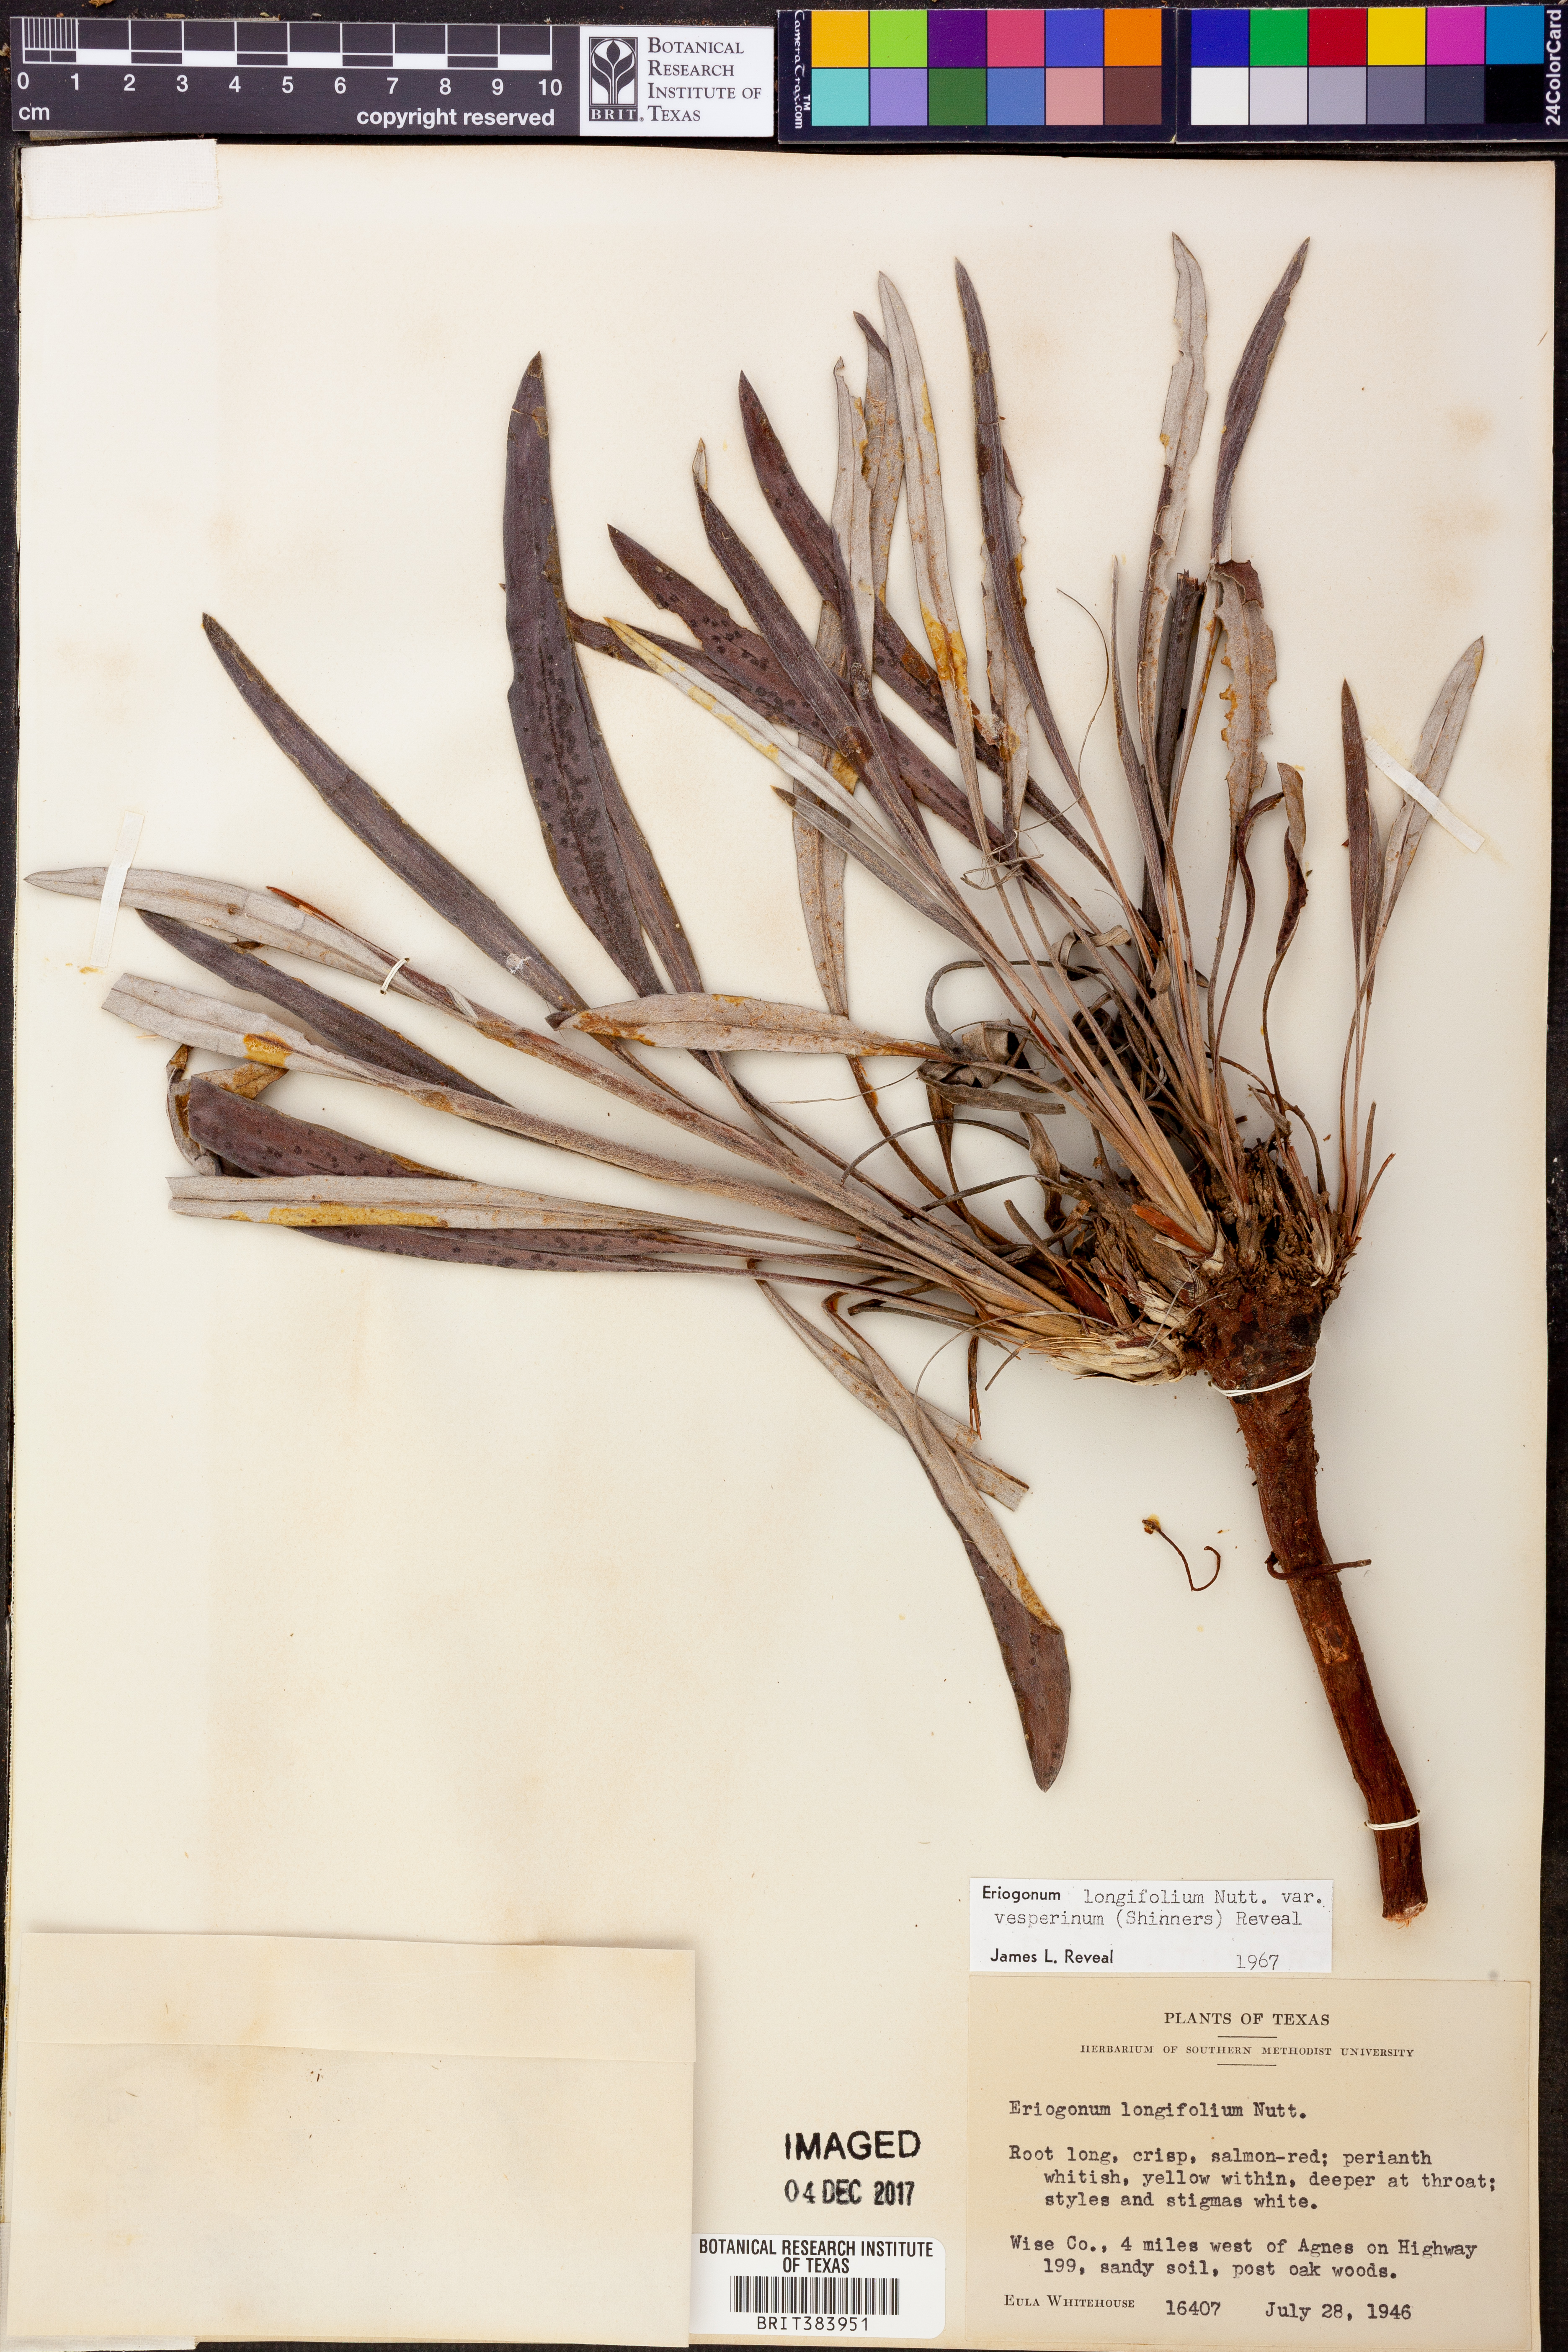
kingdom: Plantae
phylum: Tracheophyta
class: Magnoliopsida
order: Caryophyllales
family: Polygonaceae
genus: Eriogonum
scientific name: Eriogonum longifolium
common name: Longleaf wild buckwheat
